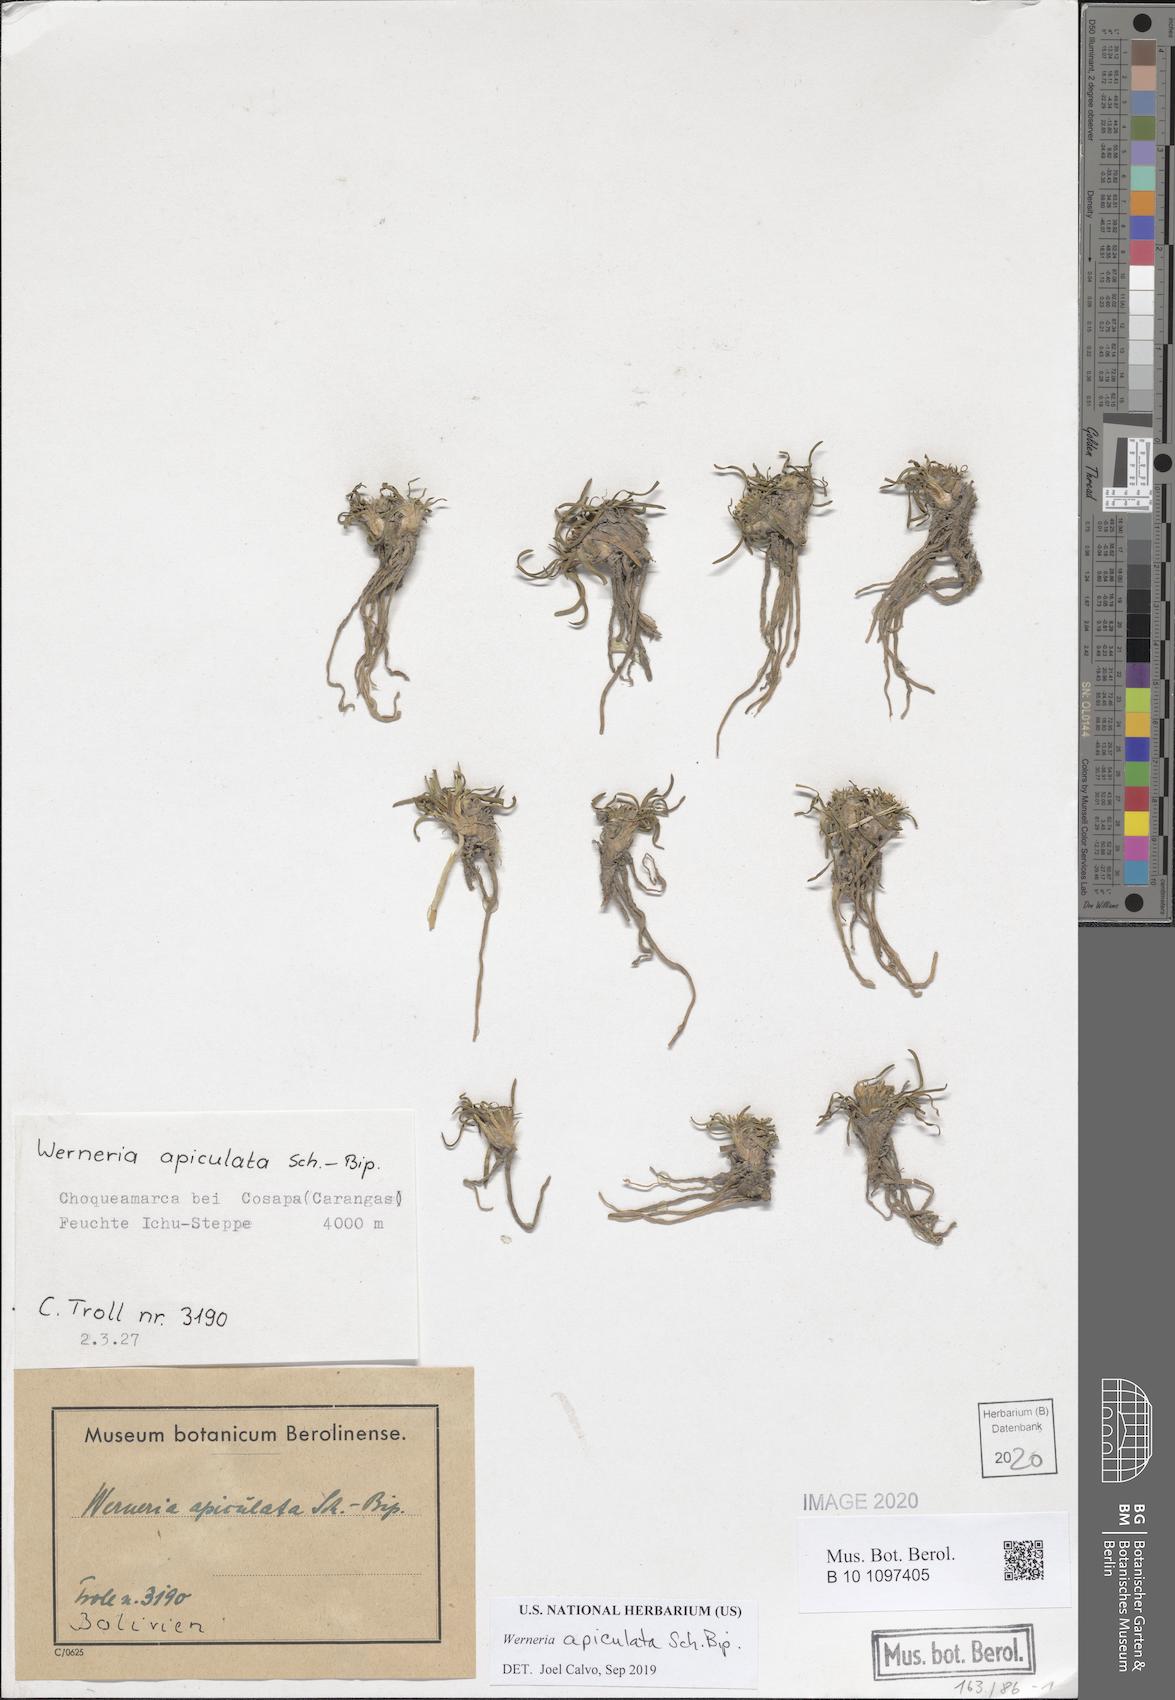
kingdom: Plantae
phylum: Tracheophyta
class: Magnoliopsida
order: Asterales
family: Asteraceae
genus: Rockhausenia
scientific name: Rockhausenia apiculata
